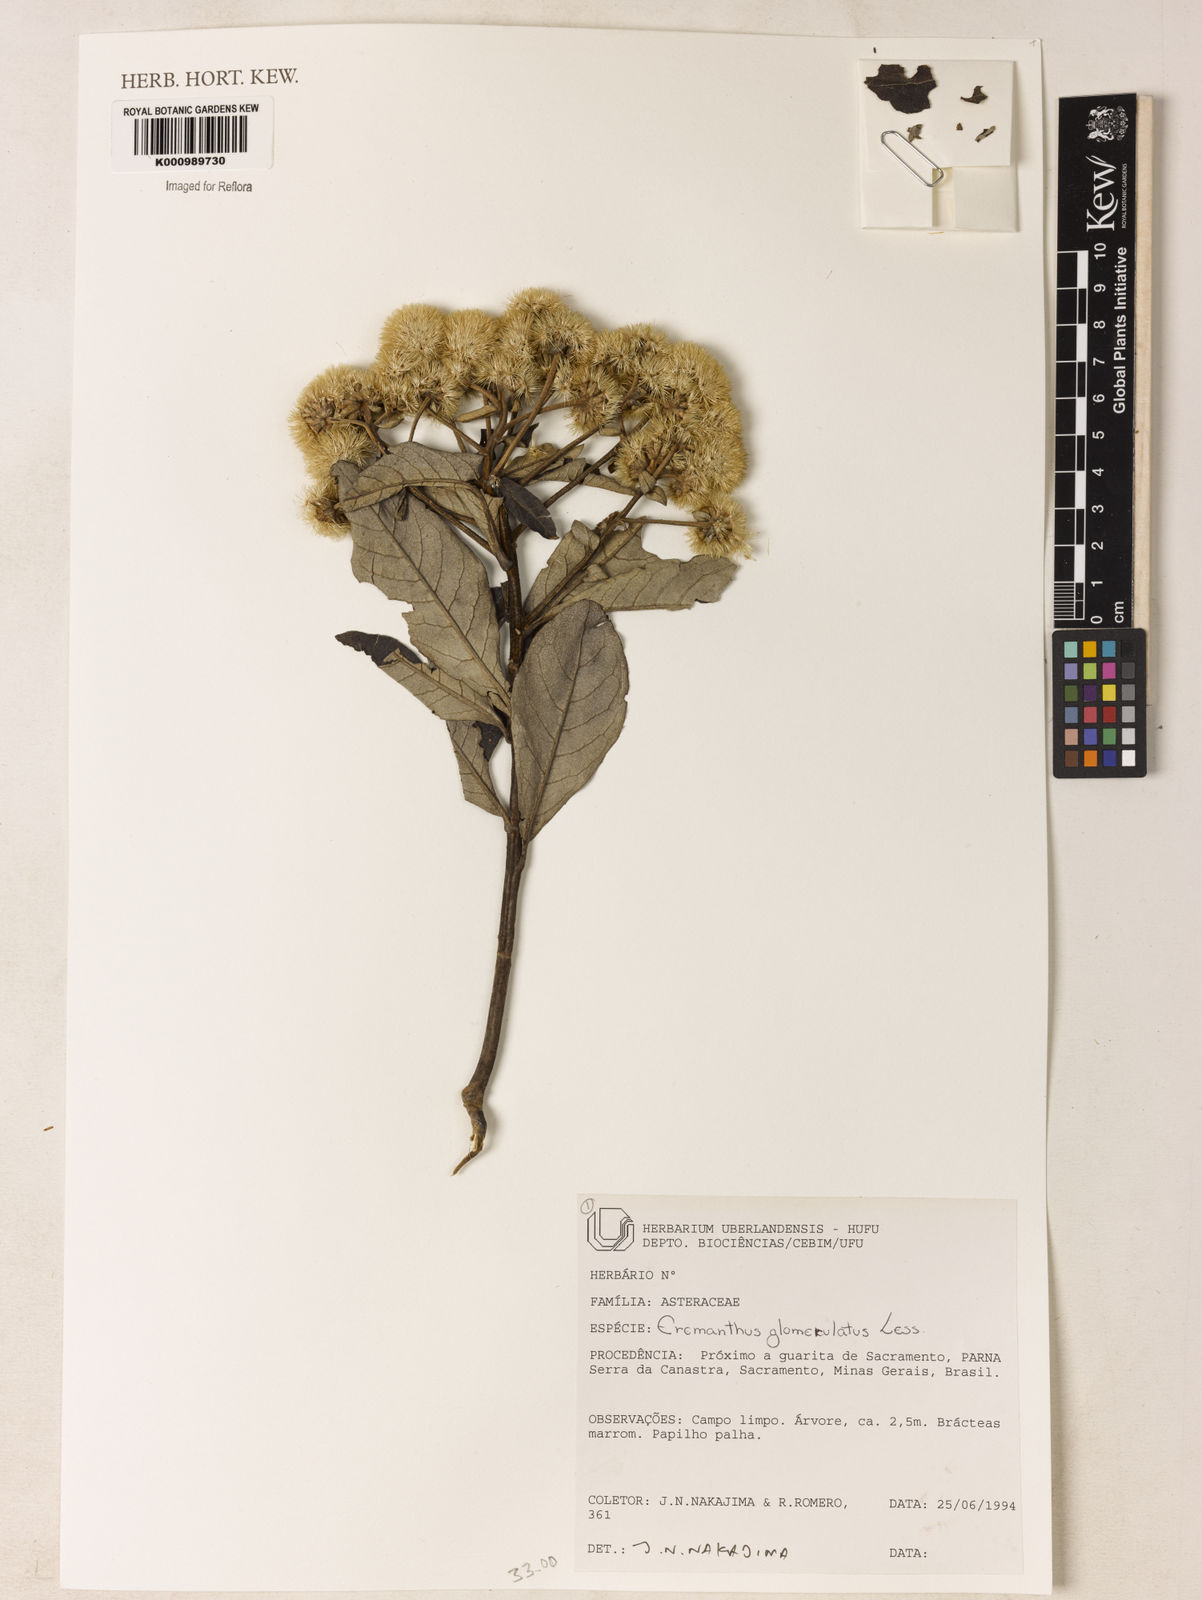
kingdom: Plantae
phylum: Tracheophyta
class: Magnoliopsida
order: Asterales
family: Asteraceae
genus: Eremanthus
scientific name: Eremanthus glomerulatus
